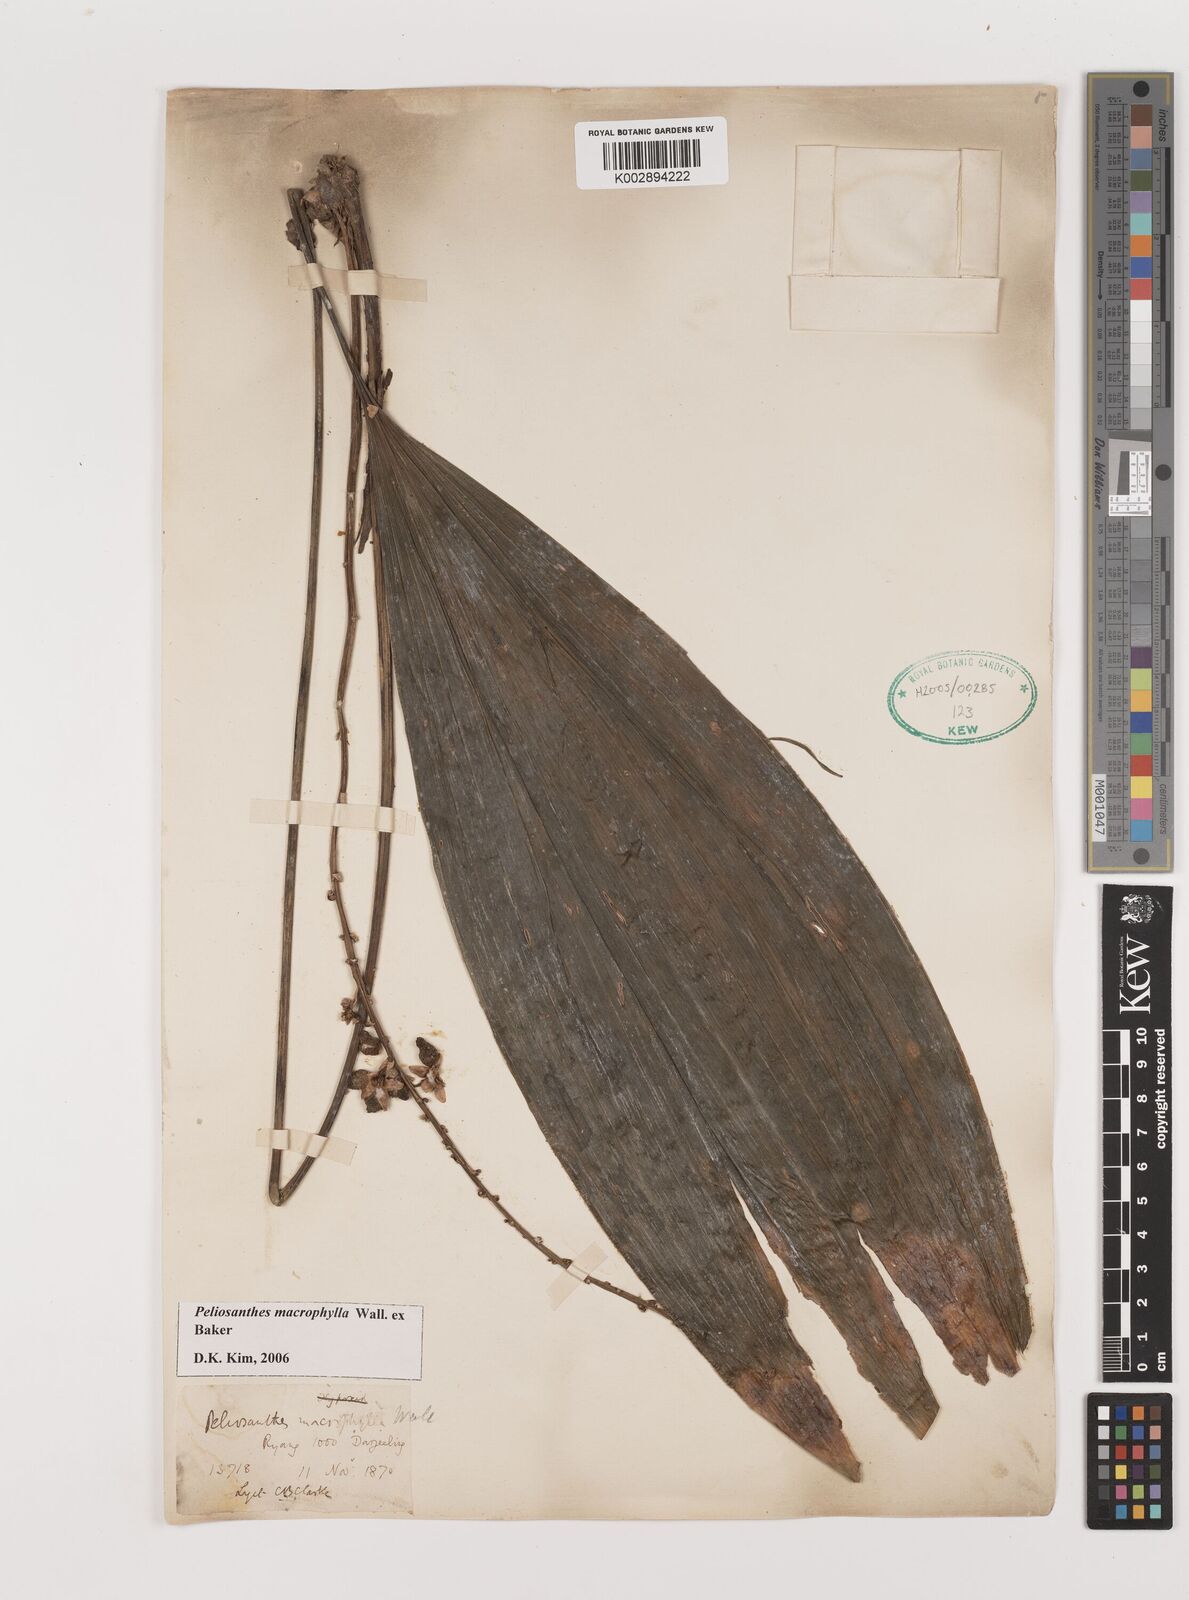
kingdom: Plantae
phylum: Tracheophyta
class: Liliopsida
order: Asparagales
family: Asparagaceae
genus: Peliosanthes
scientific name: Peliosanthes teta
